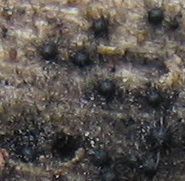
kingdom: Fungi
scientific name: Fungi
